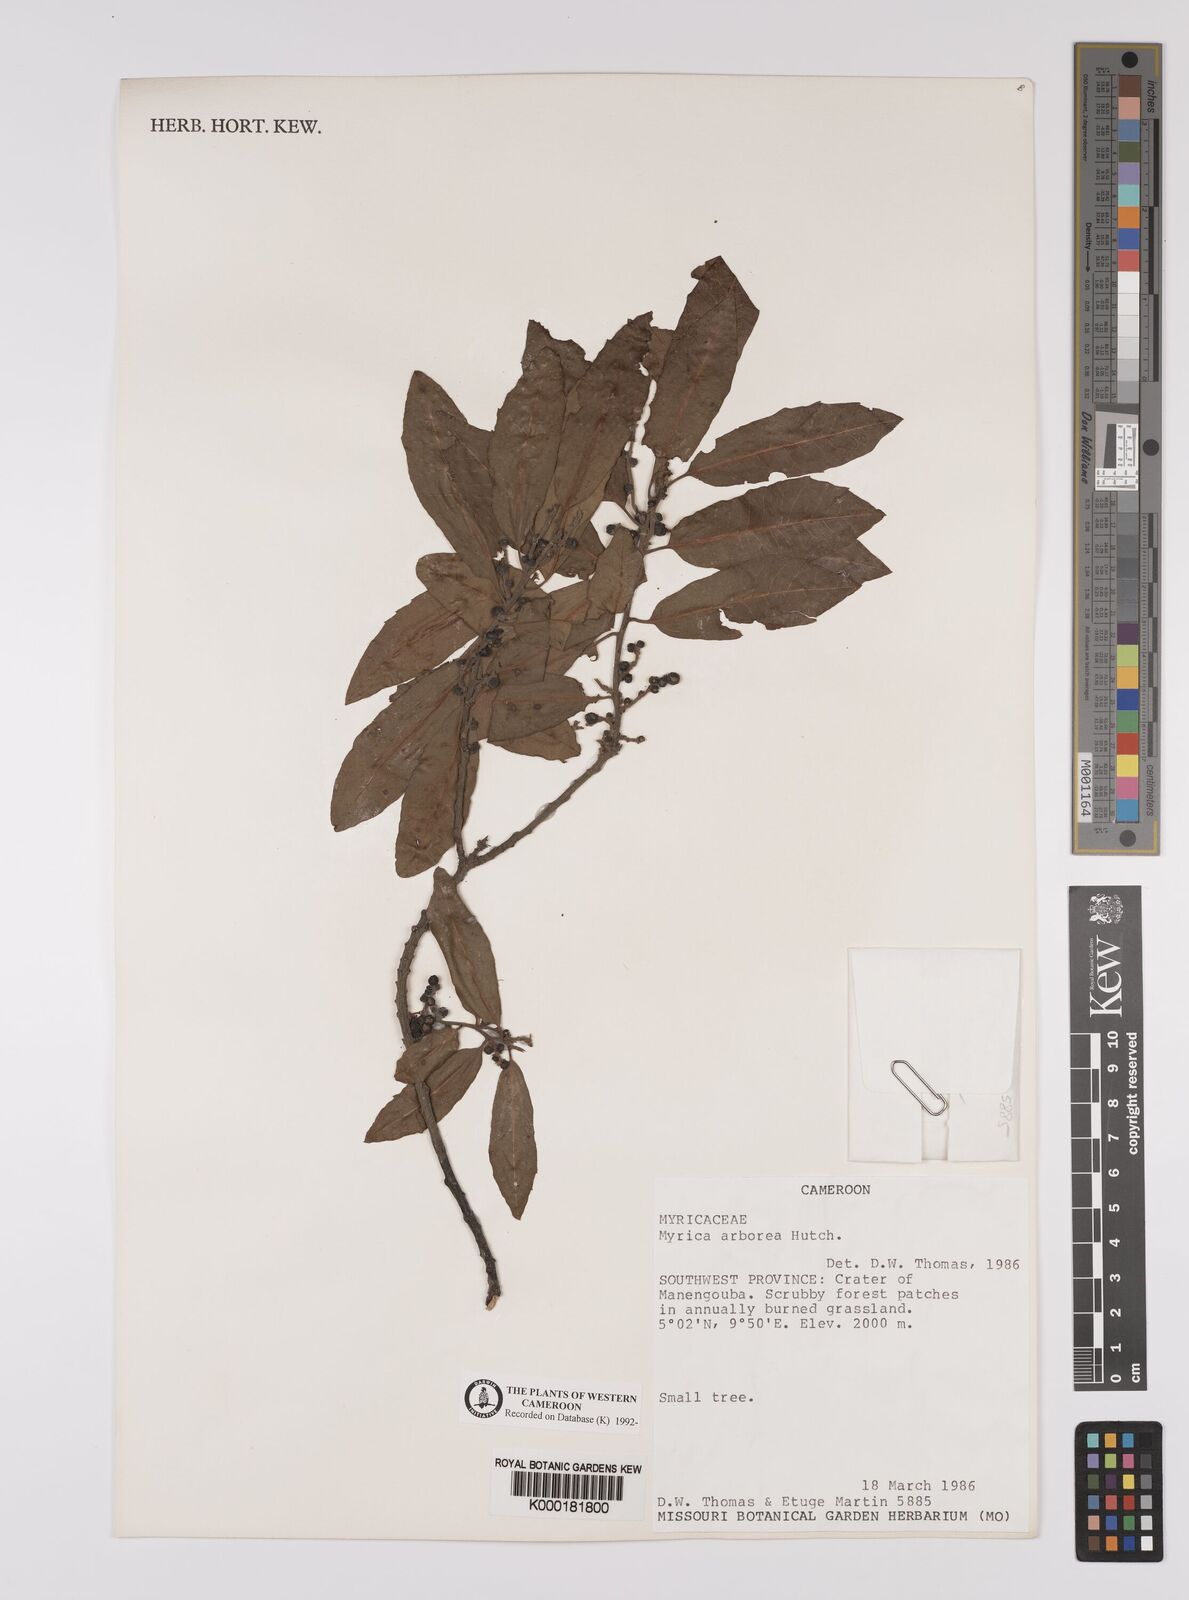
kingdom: Plantae
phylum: Tracheophyta
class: Magnoliopsida
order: Fagales
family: Myricaceae
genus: Morella
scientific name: Morella arborea
